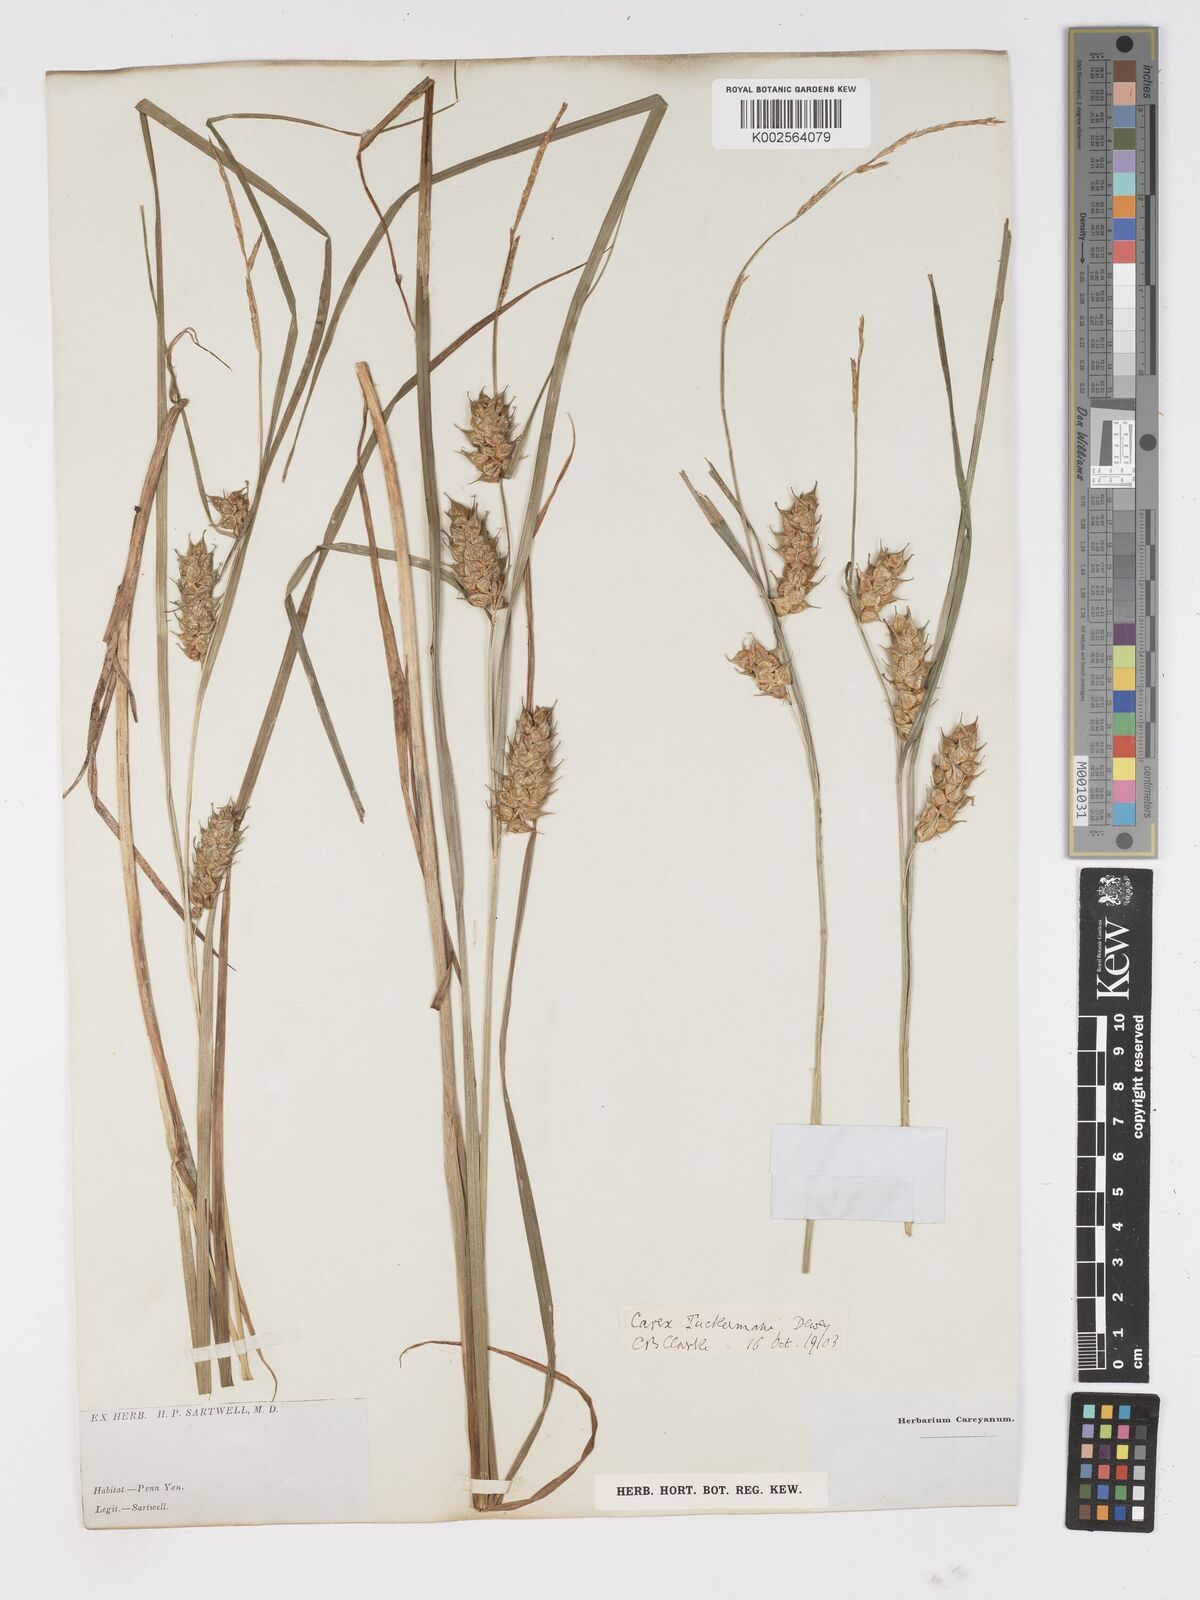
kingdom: Plantae
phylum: Tracheophyta
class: Liliopsida
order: Poales
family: Cyperaceae
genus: Carex
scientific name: Carex tuckermanii
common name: Tuckerman's sedge
